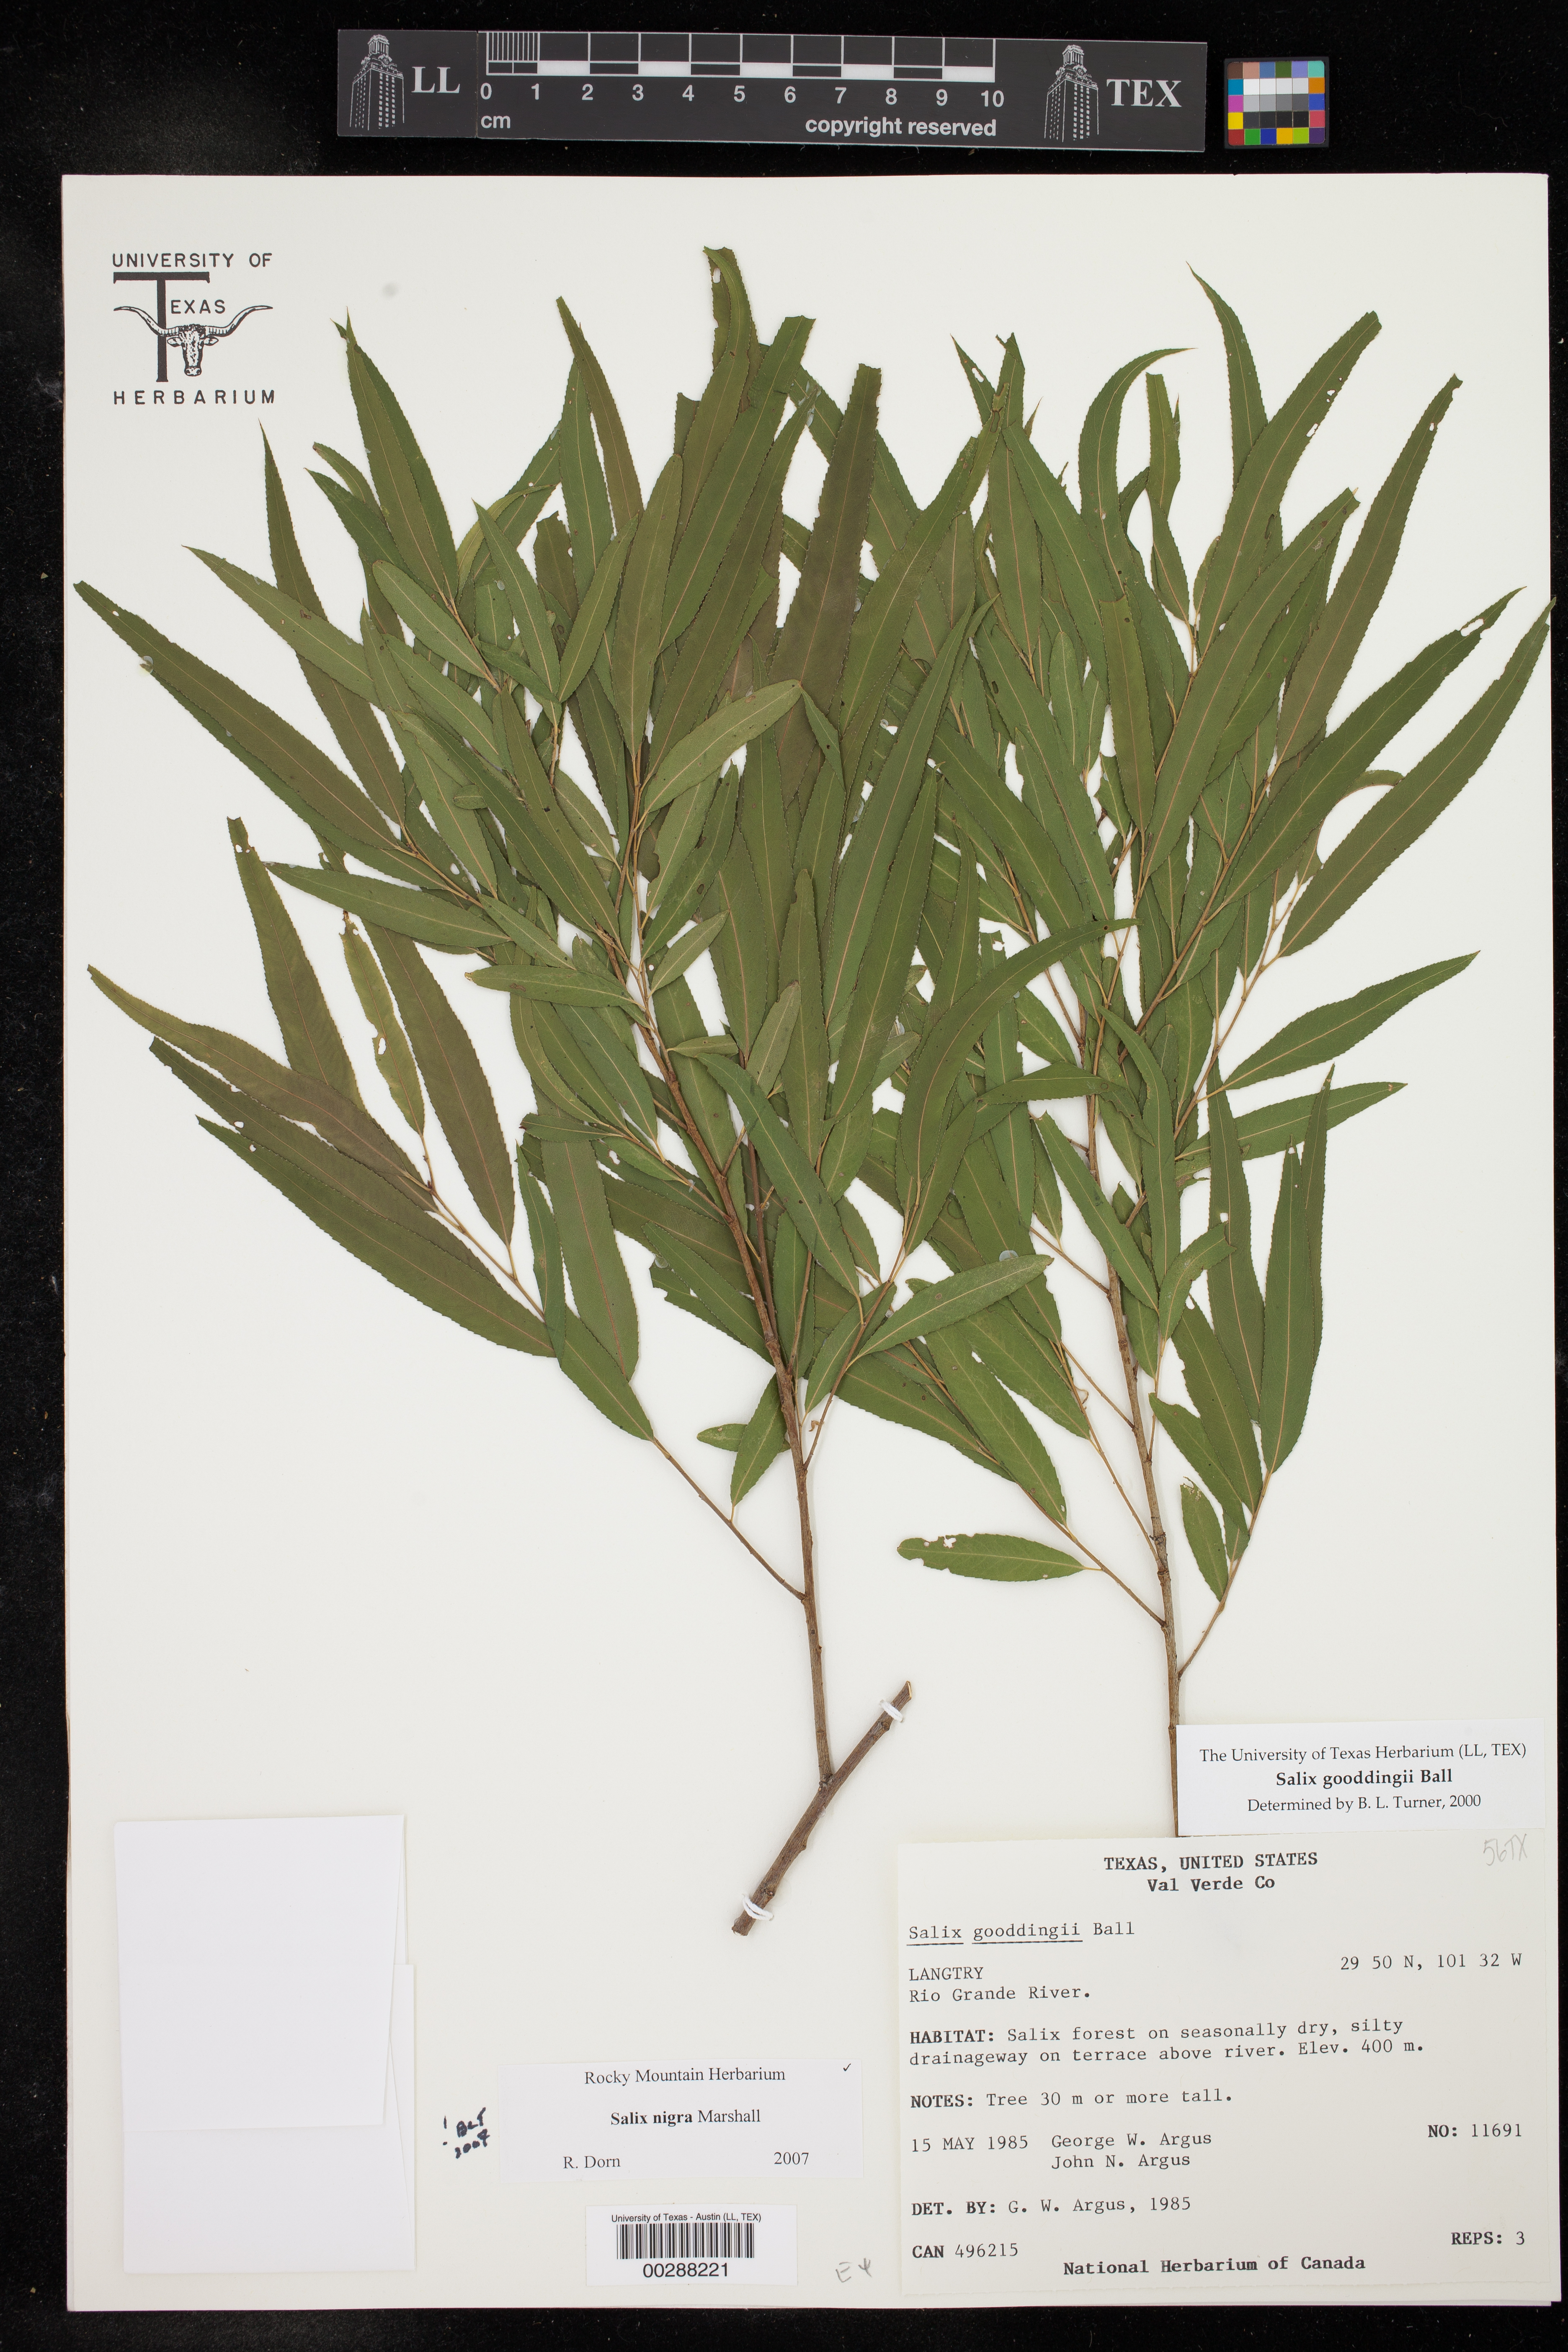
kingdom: Plantae
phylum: Tracheophyta
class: Magnoliopsida
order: Malpighiales
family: Salicaceae
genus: Salix
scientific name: Salix nigra
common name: Black willow
